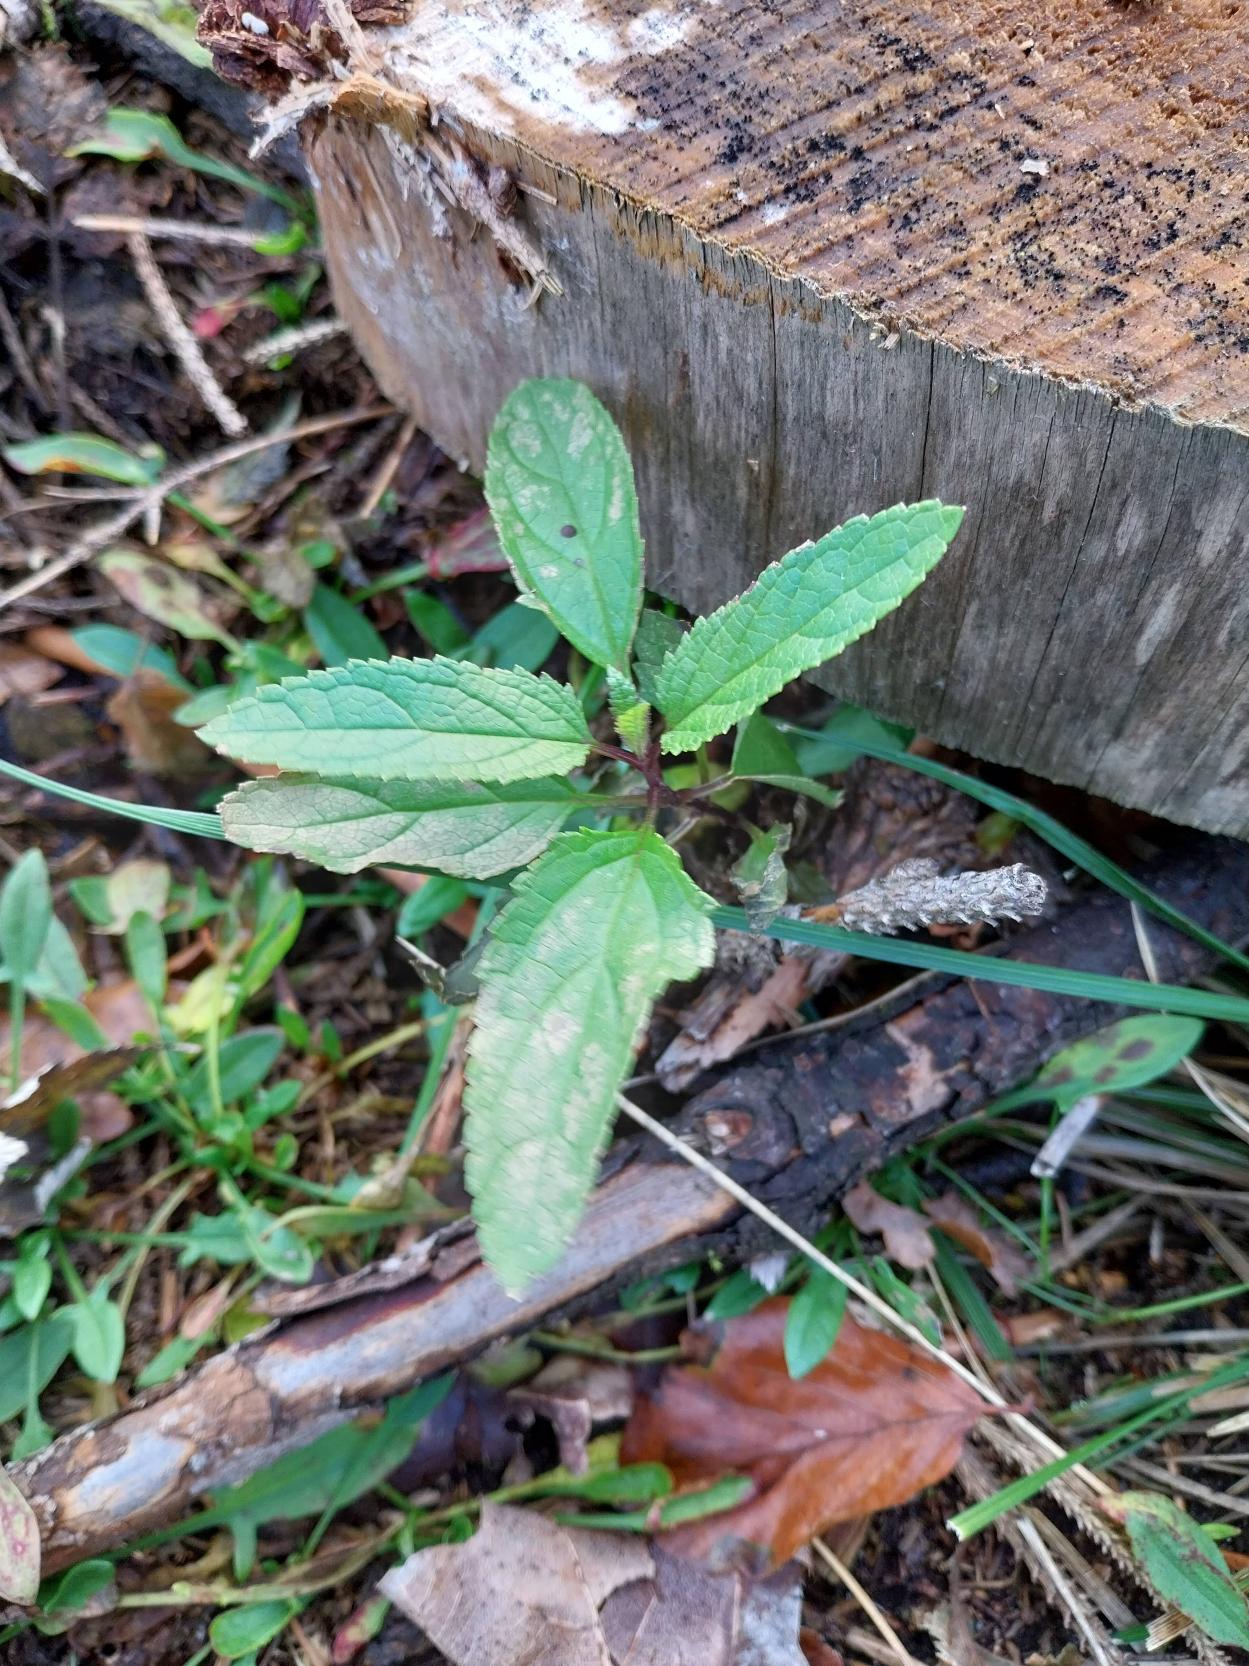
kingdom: Plantae
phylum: Tracheophyta
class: Magnoliopsida
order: Lamiales
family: Scrophulariaceae
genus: Scrophularia
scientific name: Scrophularia nodosa
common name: Knoldet brunrod
